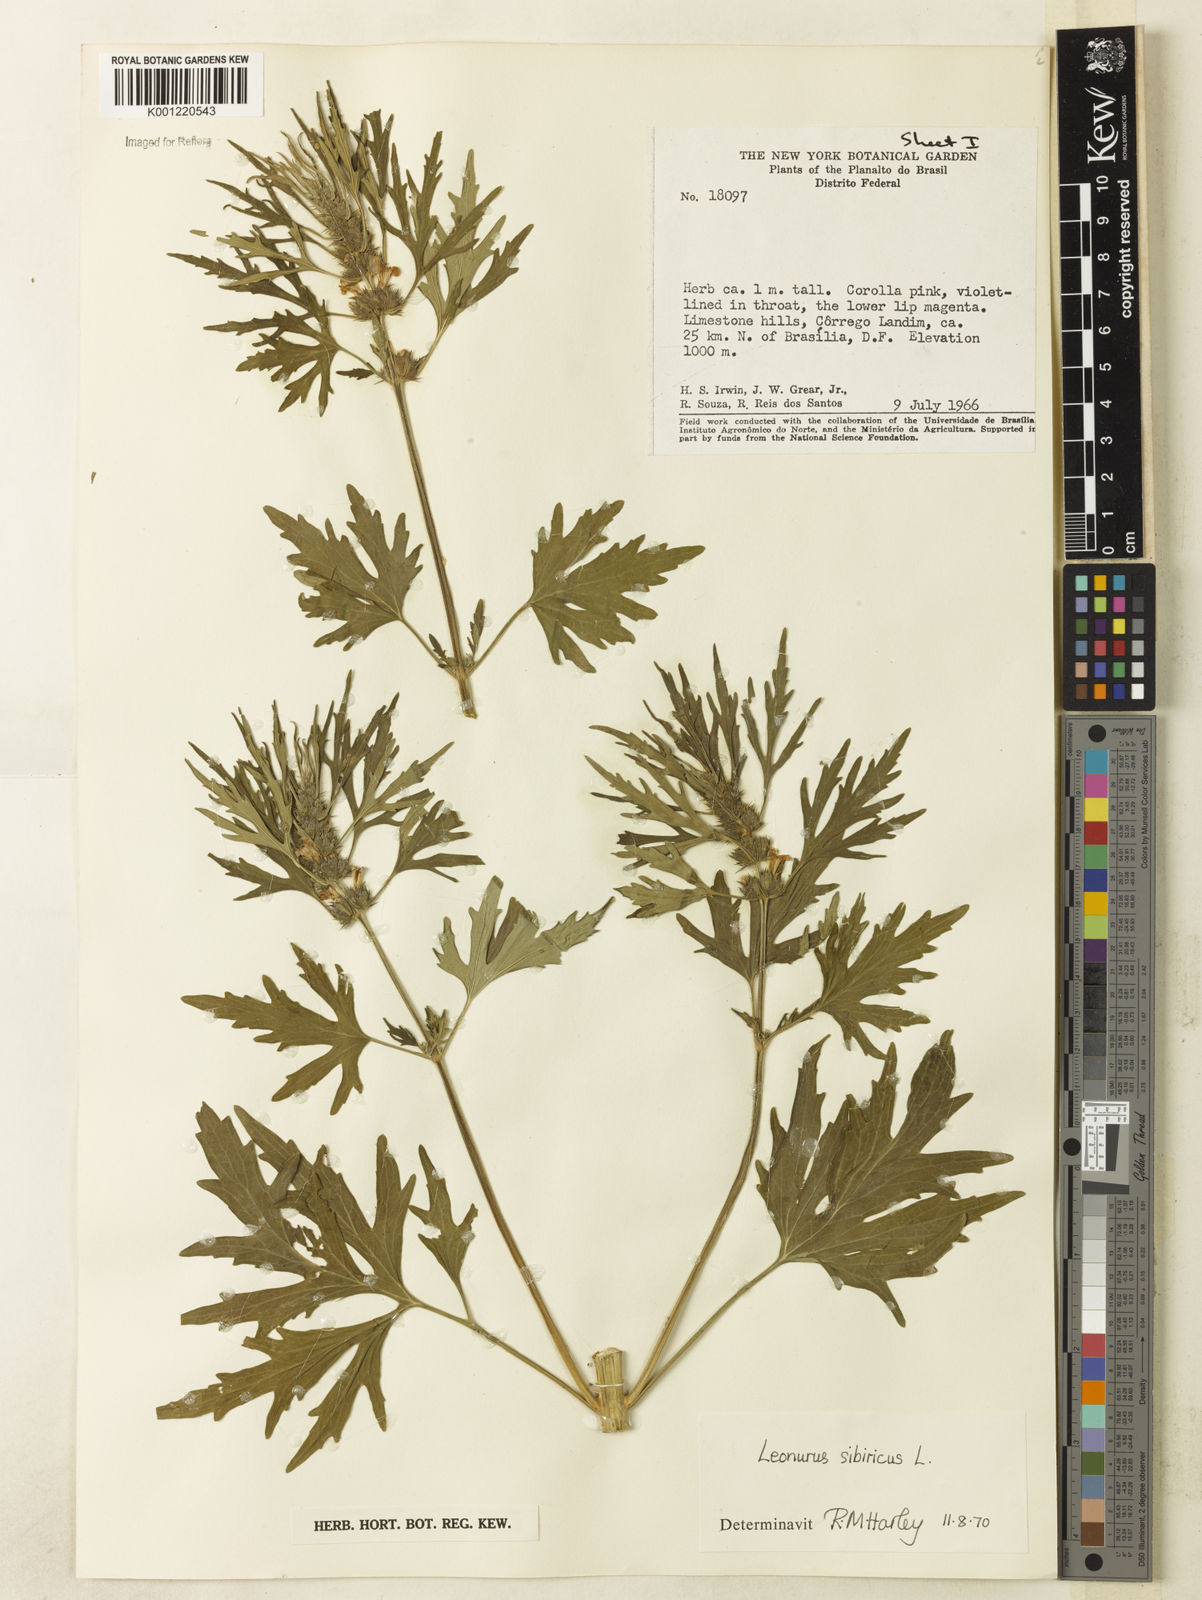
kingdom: Plantae
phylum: Tracheophyta
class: Magnoliopsida
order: Lamiales
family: Lamiaceae
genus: Leonurus
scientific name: Leonurus japonicus
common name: Honeyweed
